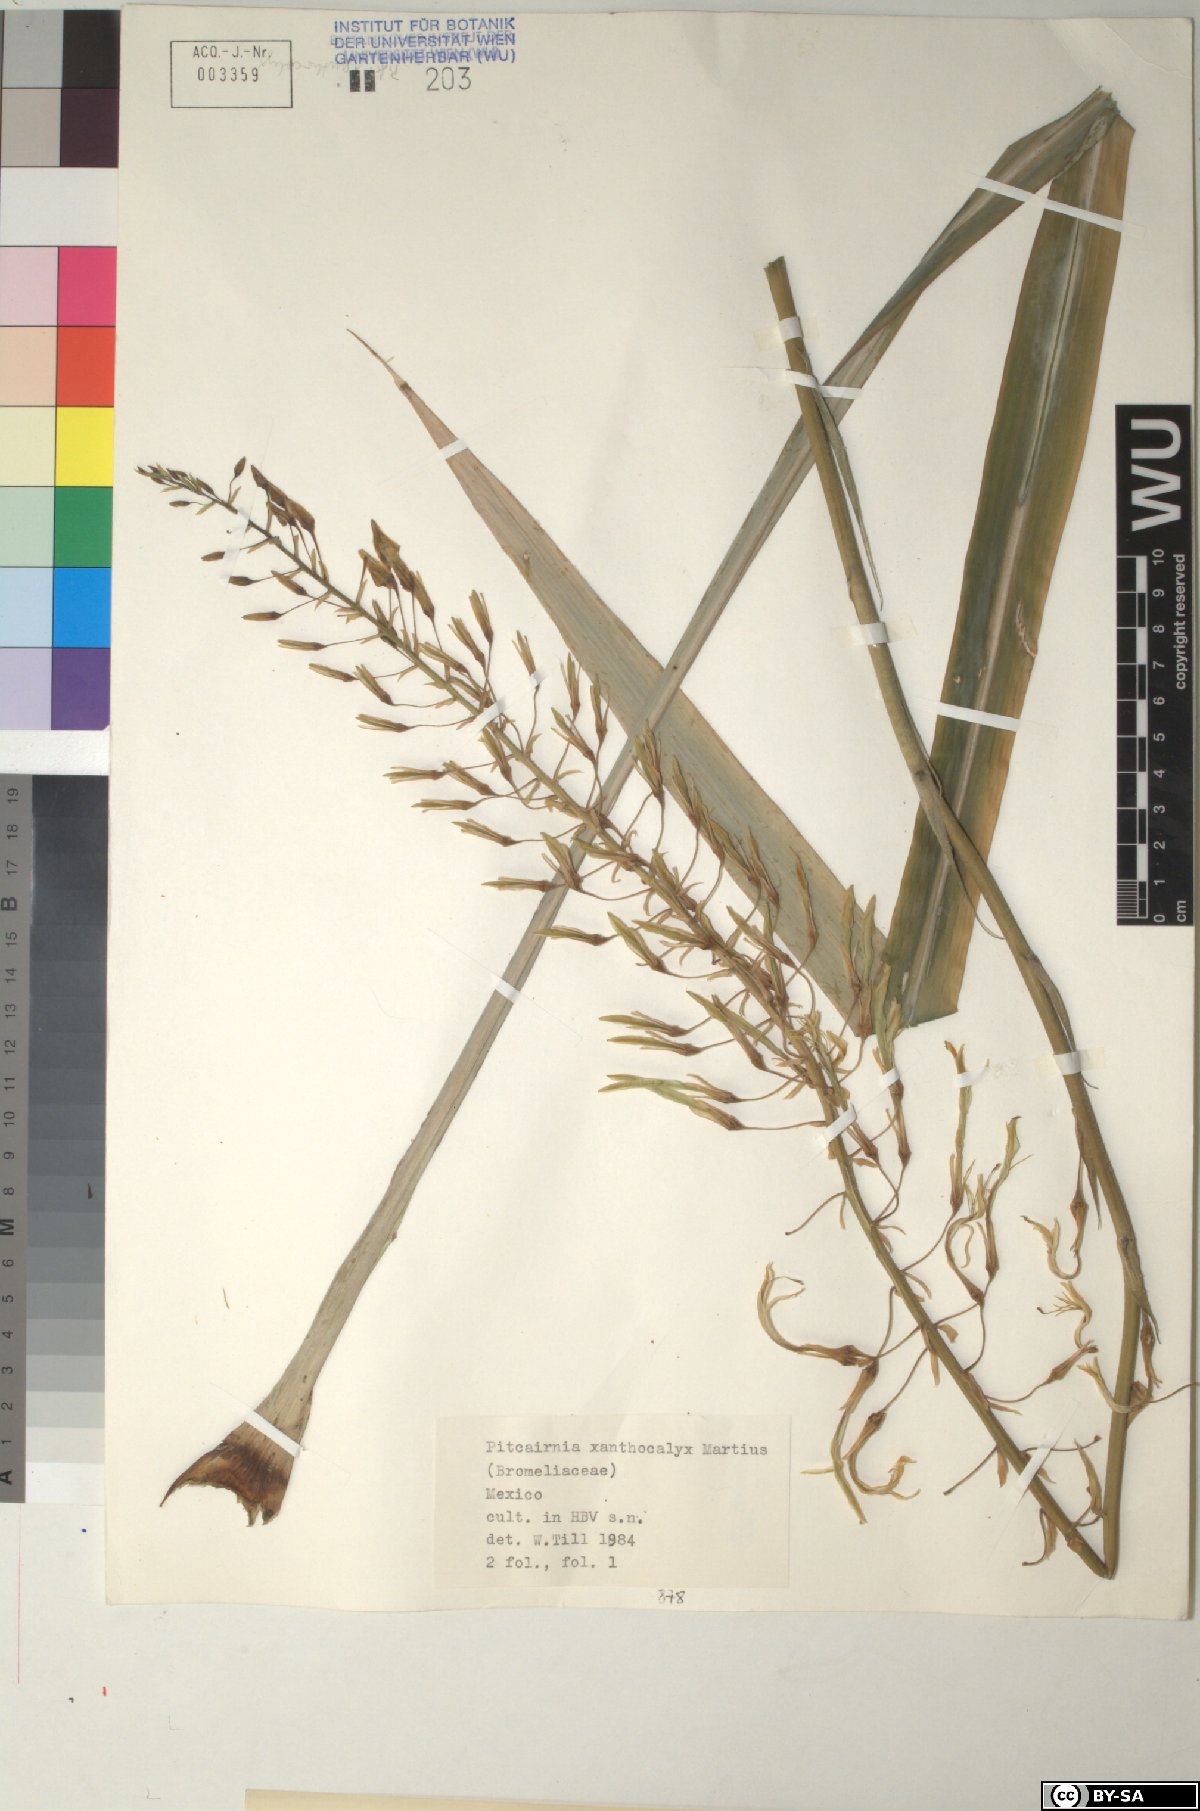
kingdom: Plantae
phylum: Tracheophyta
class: Liliopsida
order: Poales
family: Bromeliaceae
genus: Pitcairnia
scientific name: Pitcairnia xanthocalyx
